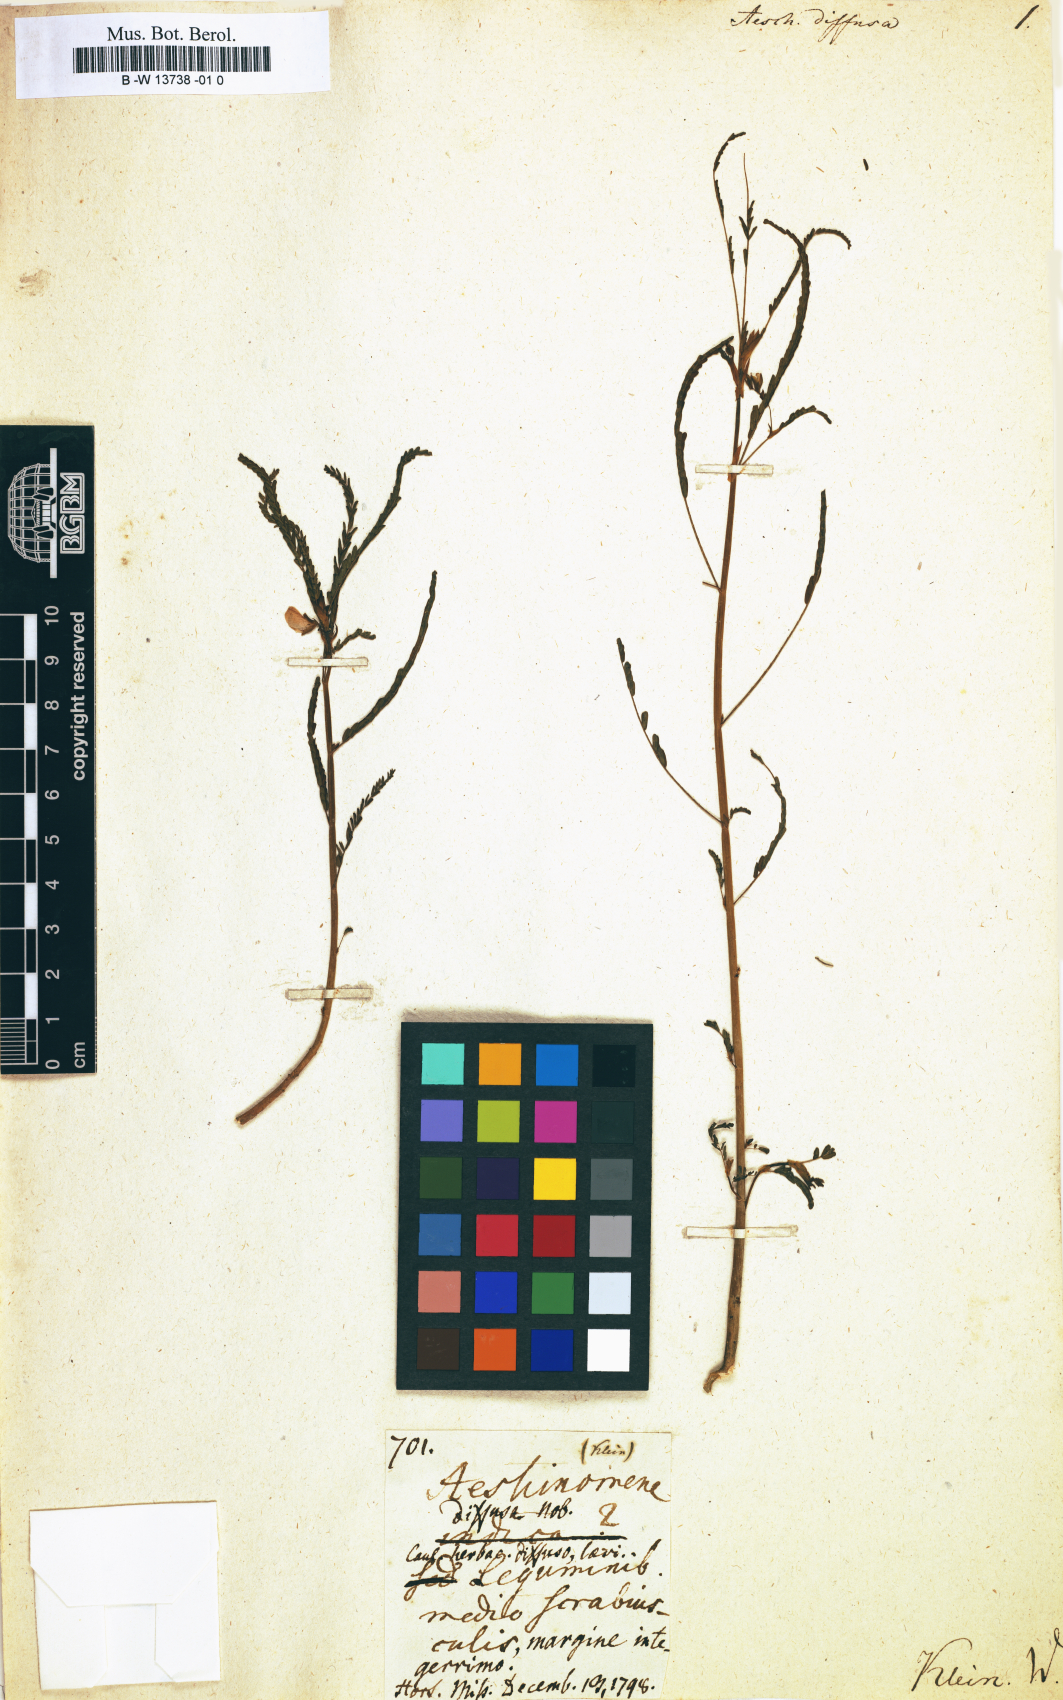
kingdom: Plantae
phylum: Tracheophyta
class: Magnoliopsida
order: Fabales
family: Fabaceae
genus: Aeschynomene
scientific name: Aeschynomene indica
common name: Indian jointvetch
